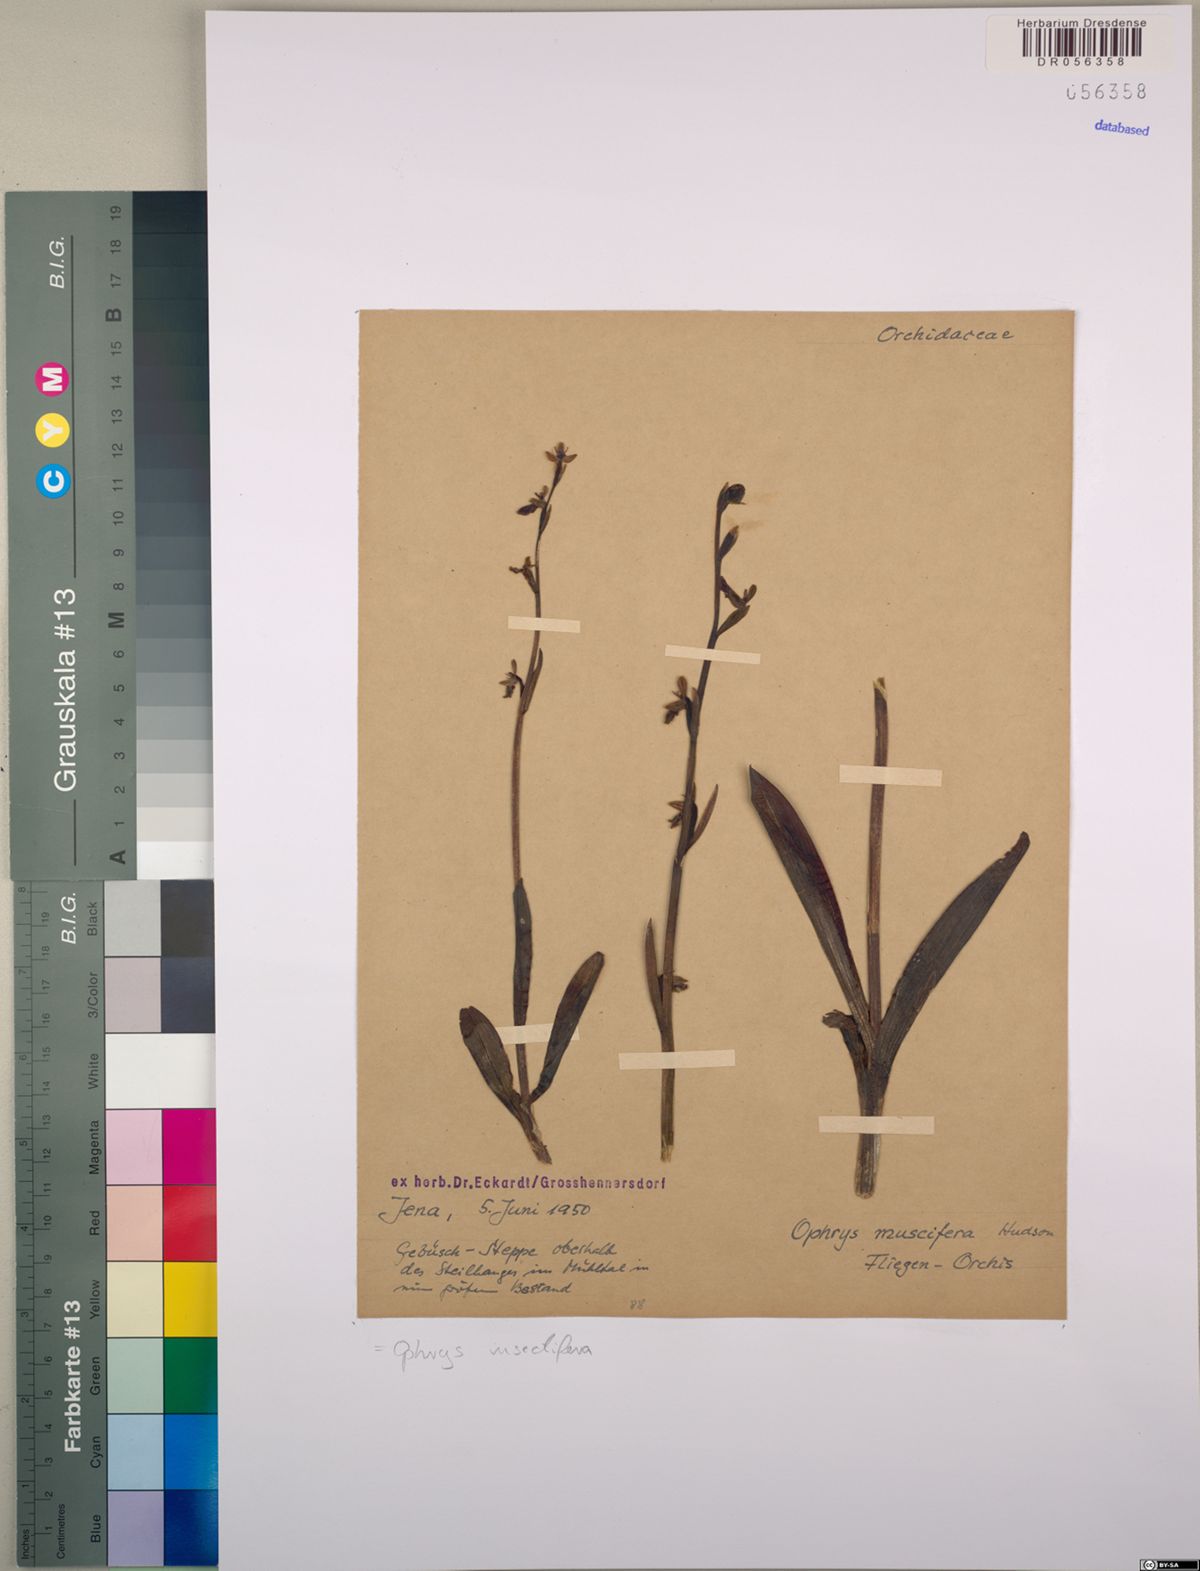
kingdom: Plantae
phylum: Tracheophyta
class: Liliopsida
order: Asparagales
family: Orchidaceae
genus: Ophrys
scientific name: Ophrys insectifera
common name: Fly orchid
